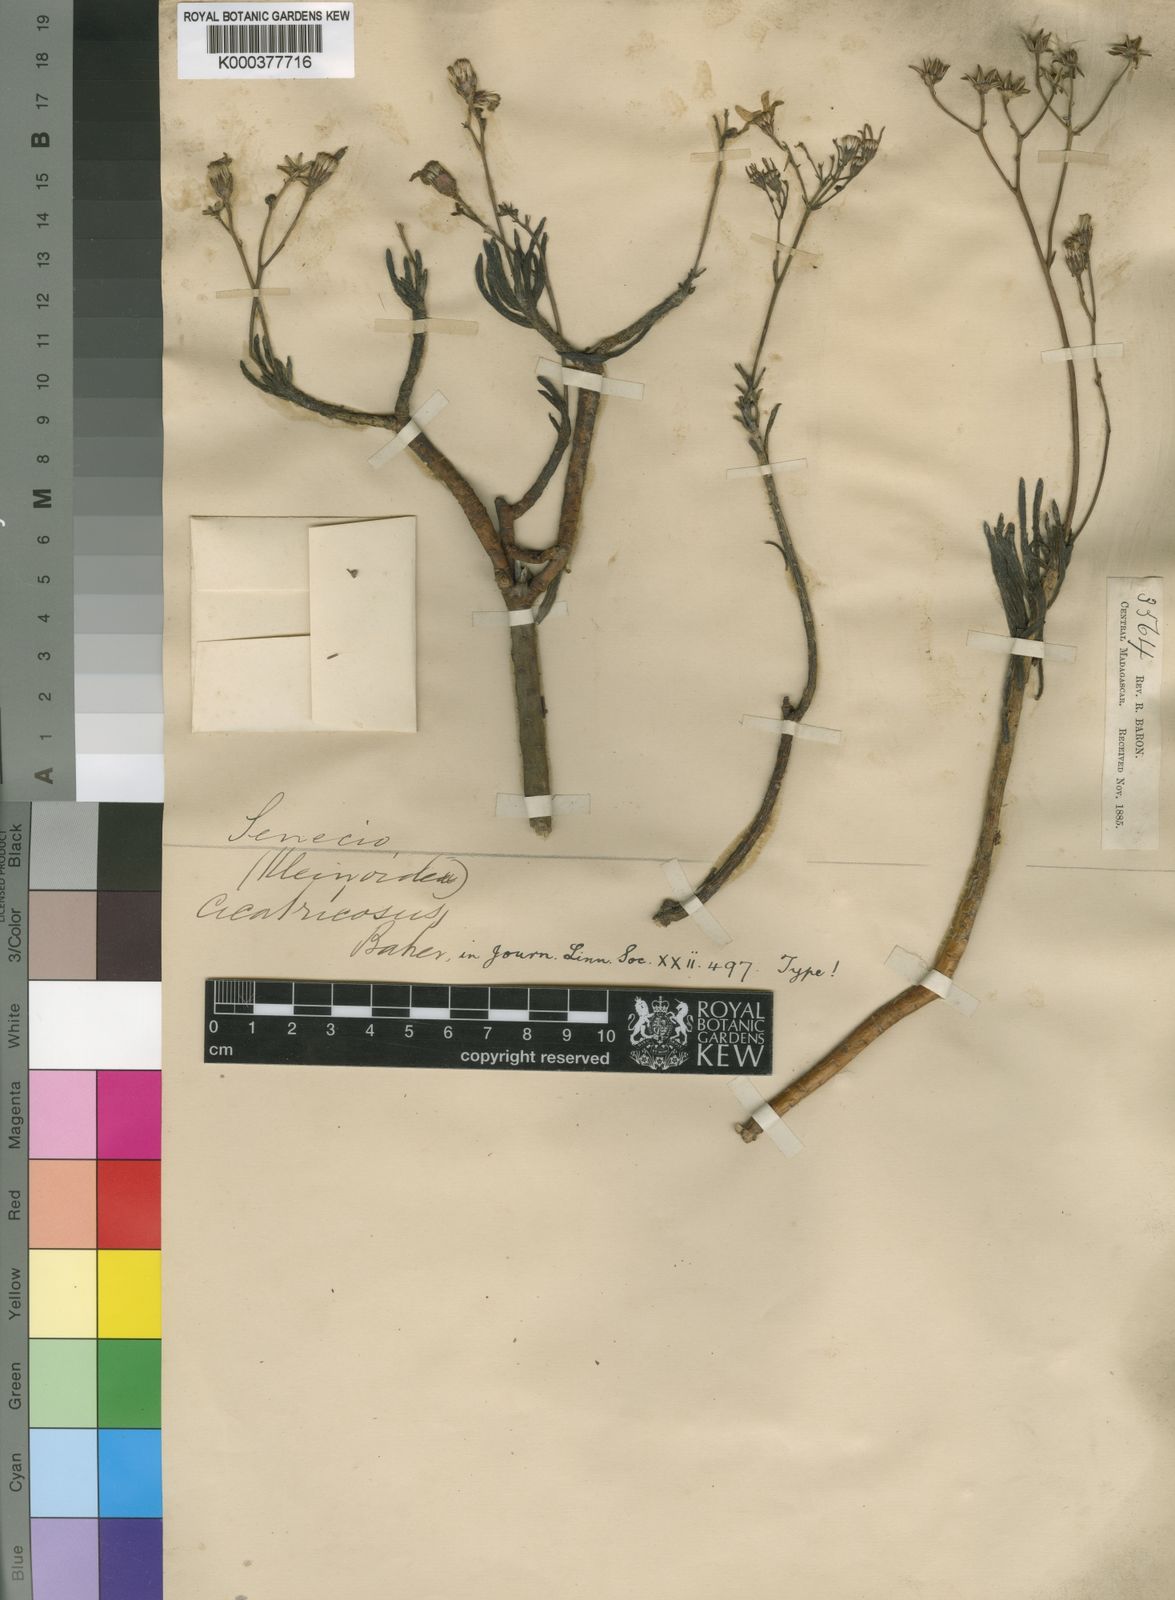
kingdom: Plantae
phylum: Tracheophyta
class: Magnoliopsida
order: Asterales
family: Asteraceae
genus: Kleinia
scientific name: Kleinia
